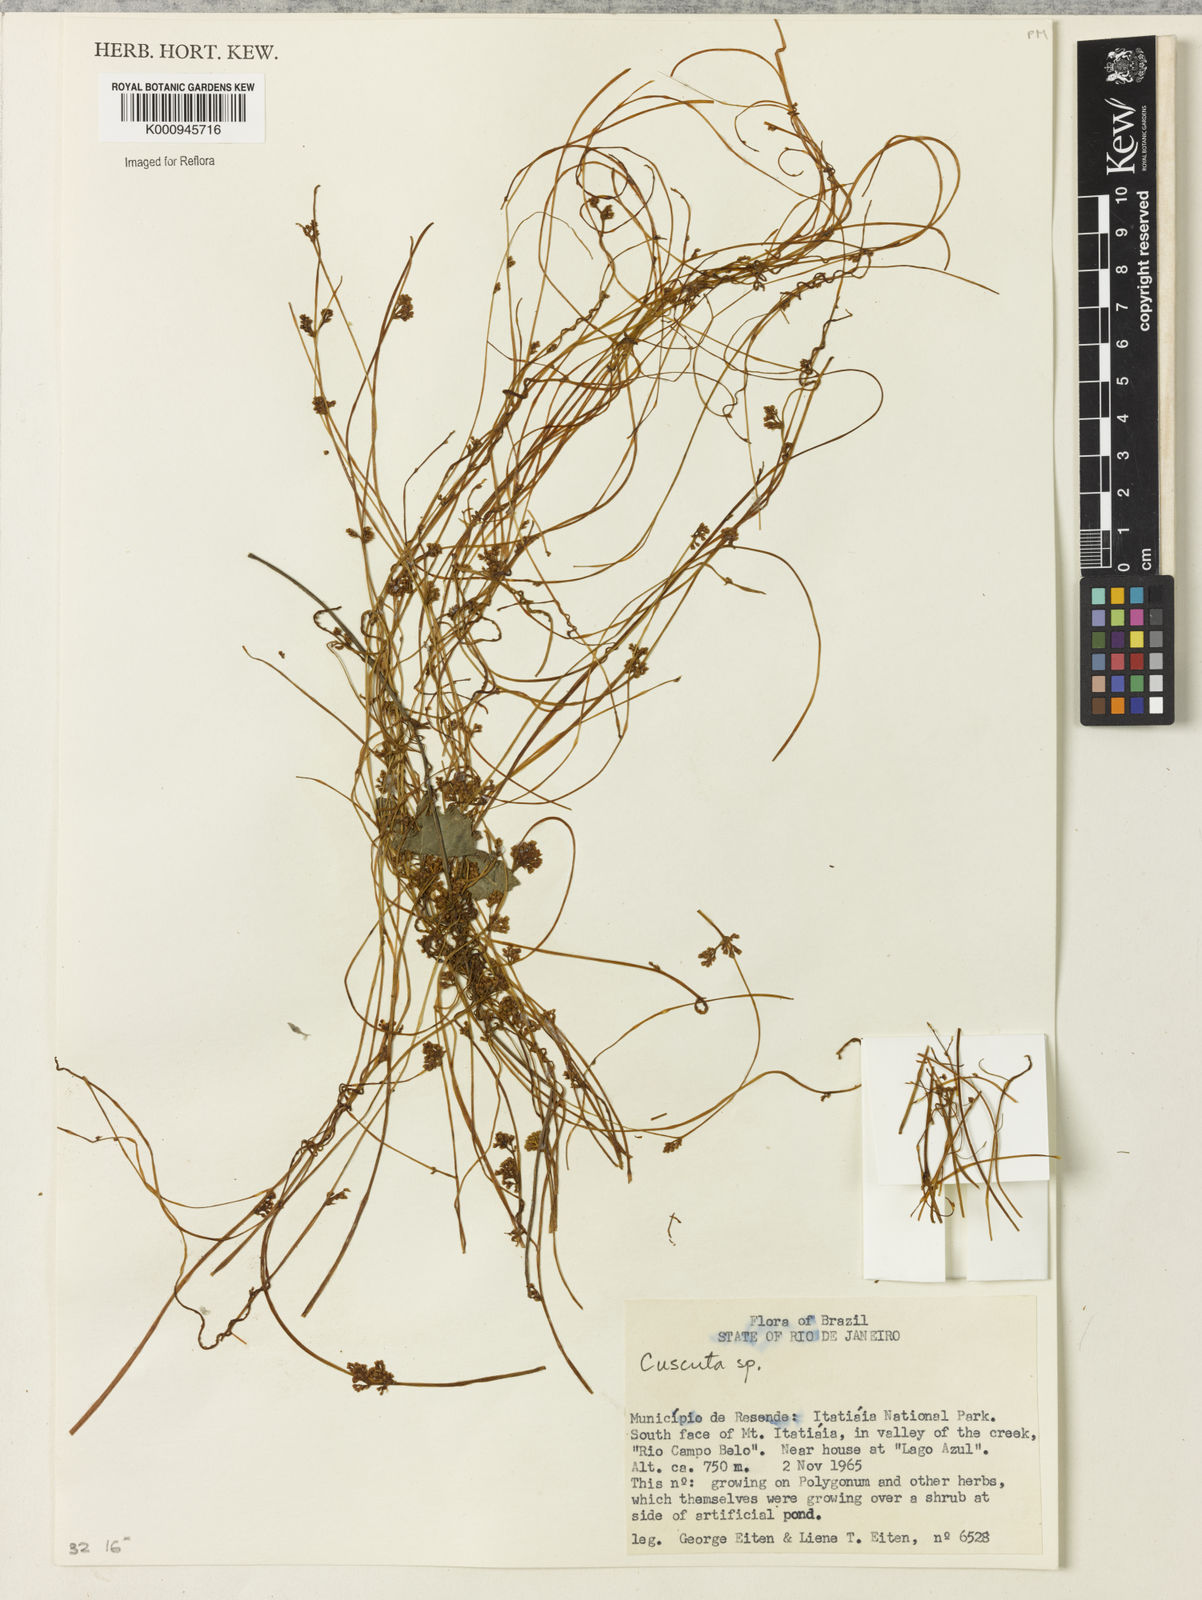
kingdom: Plantae
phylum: Tracheophyta
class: Magnoliopsida
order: Solanales
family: Convolvulaceae
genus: Cuscuta
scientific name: Cuscuta
